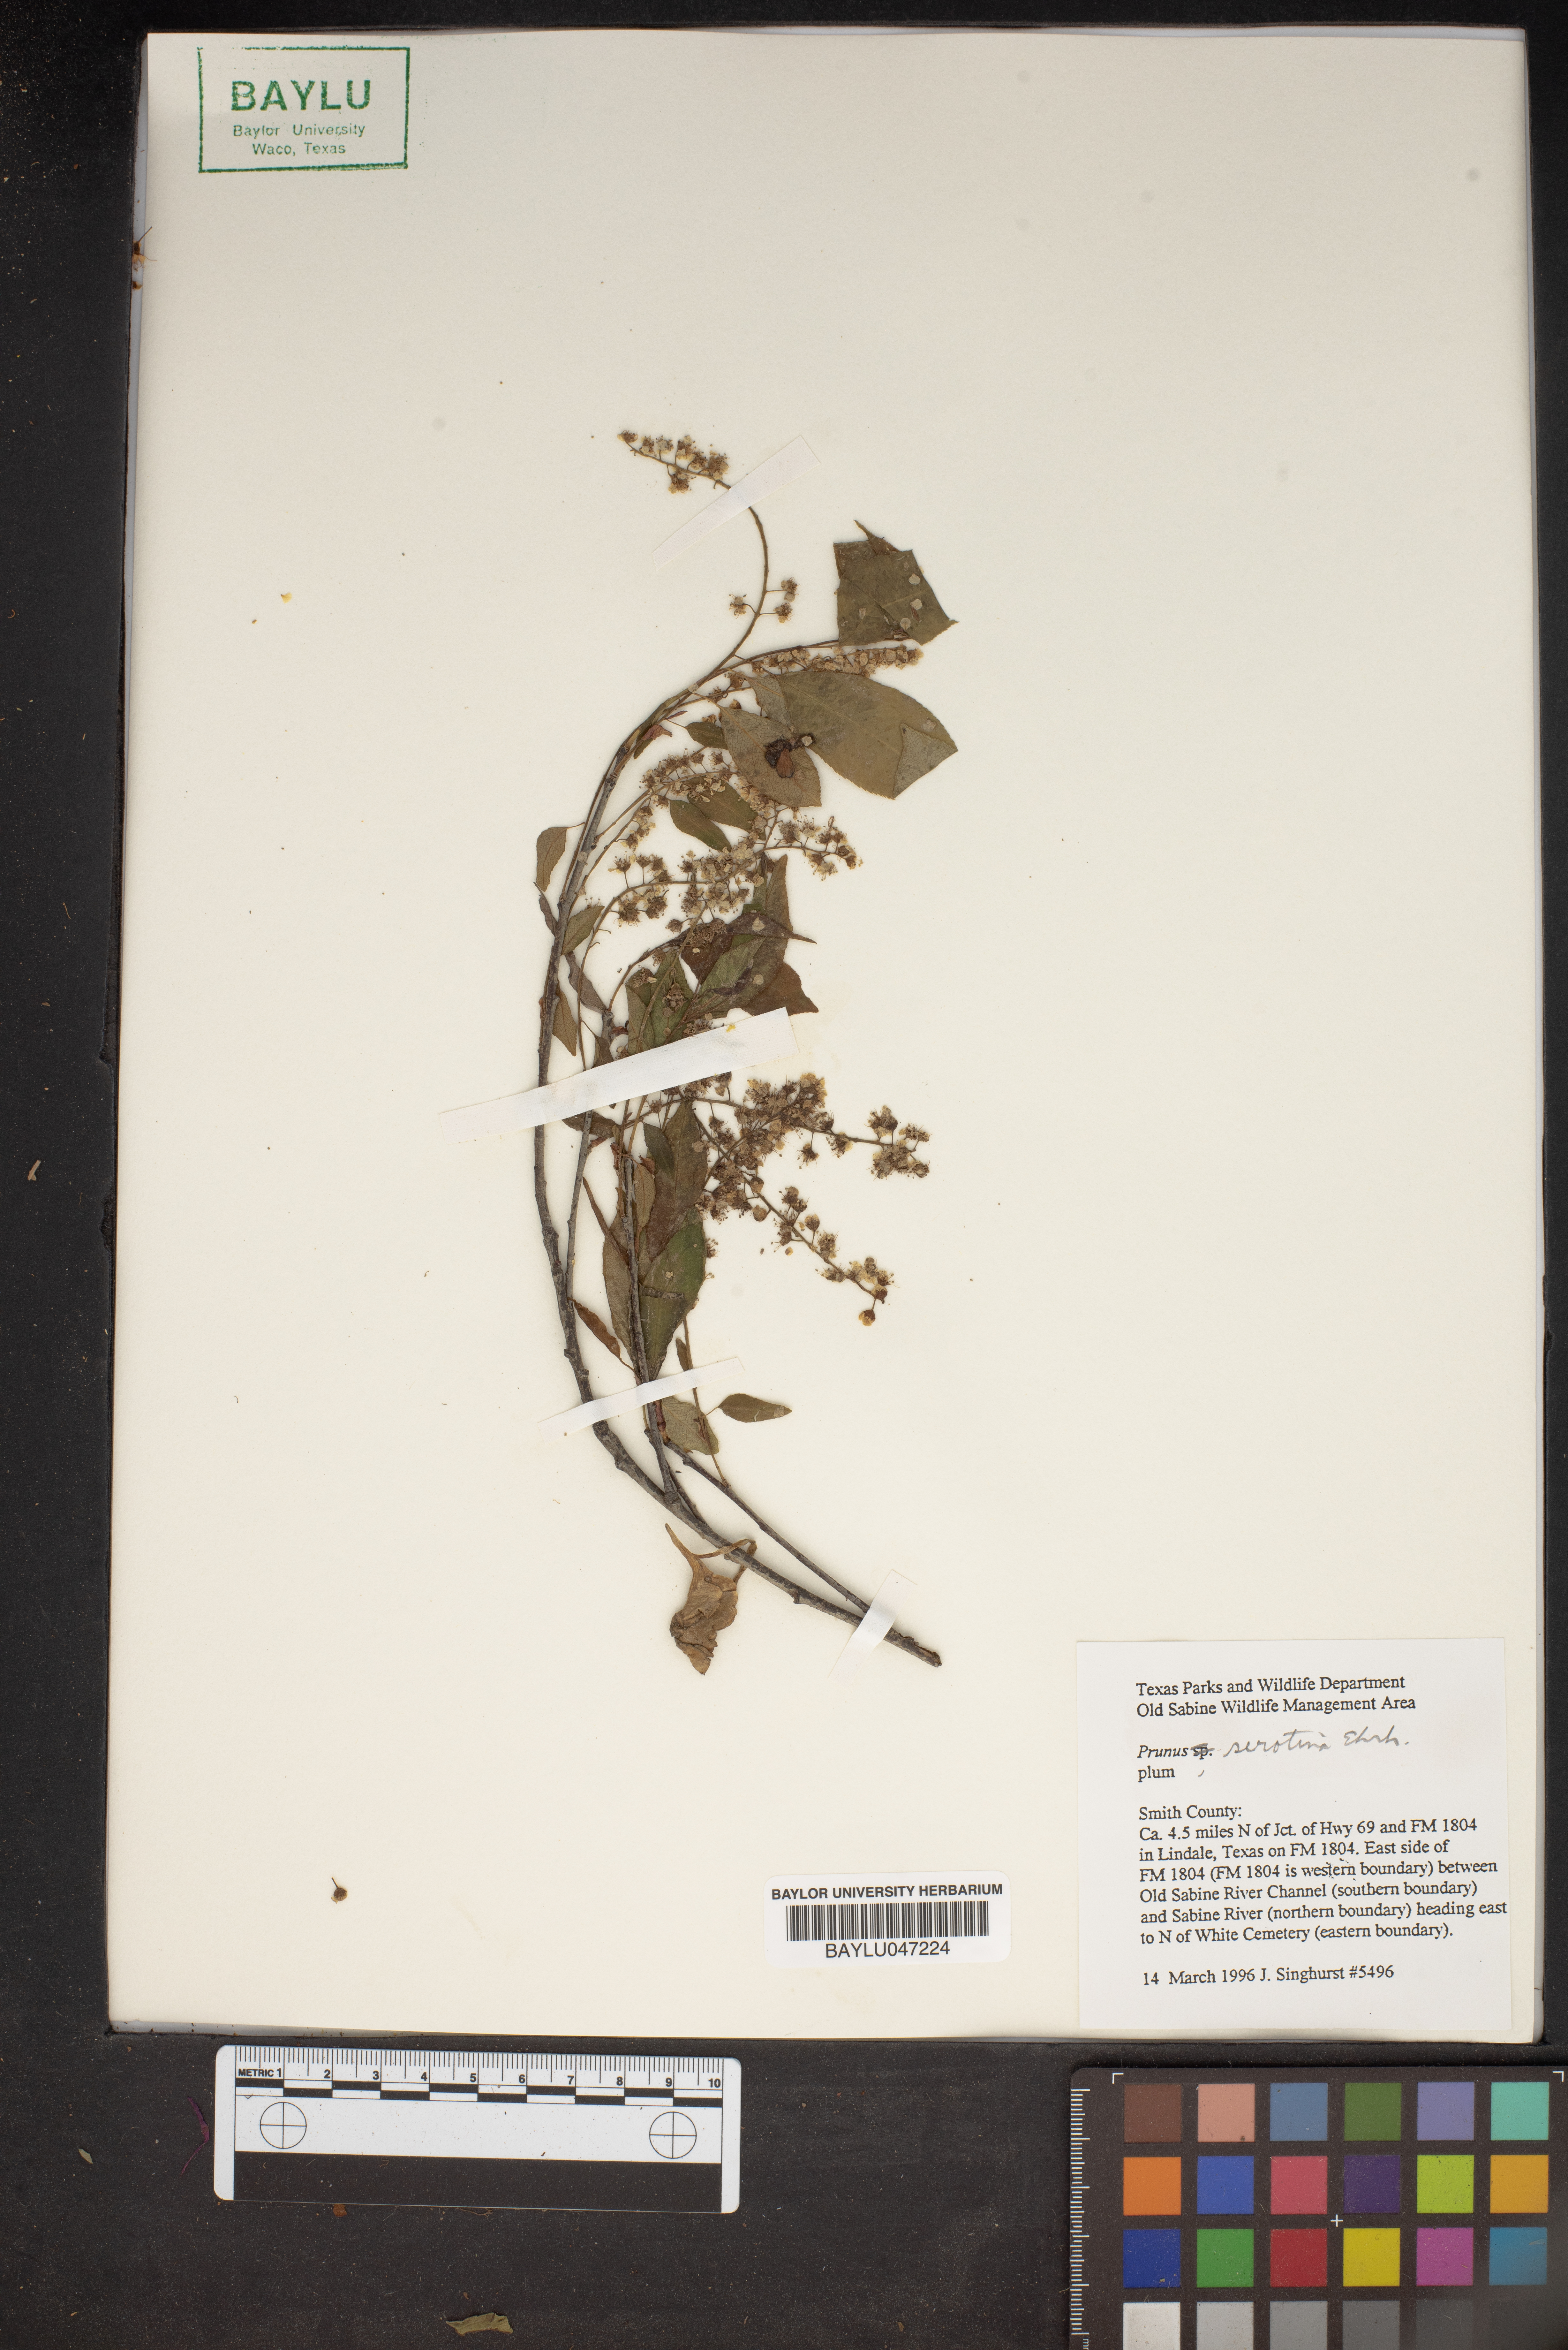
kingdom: Plantae
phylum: Tracheophyta
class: Magnoliopsida
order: Rosales
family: Rosaceae
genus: Prunus
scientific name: Prunus serotina
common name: Black cherry
